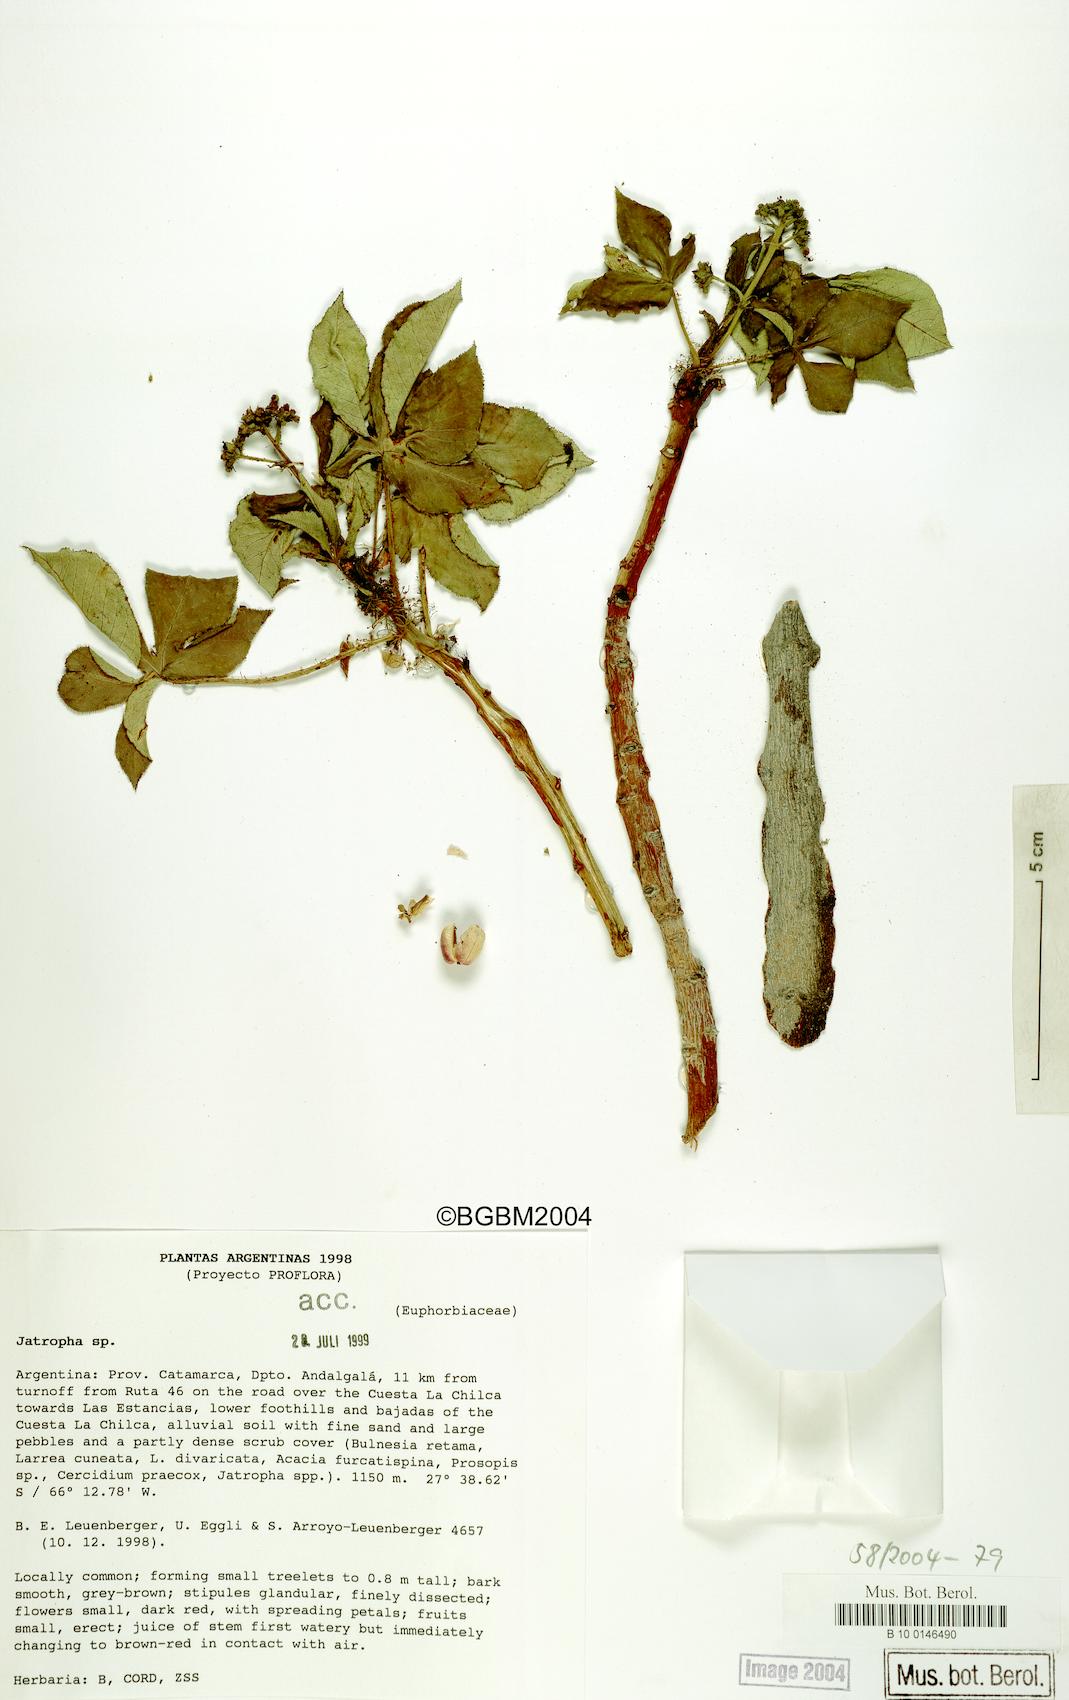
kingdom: Plantae
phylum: Tracheophyta
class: Magnoliopsida
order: Malpighiales
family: Euphorbiaceae
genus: Jatropha
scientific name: Jatropha excisa
